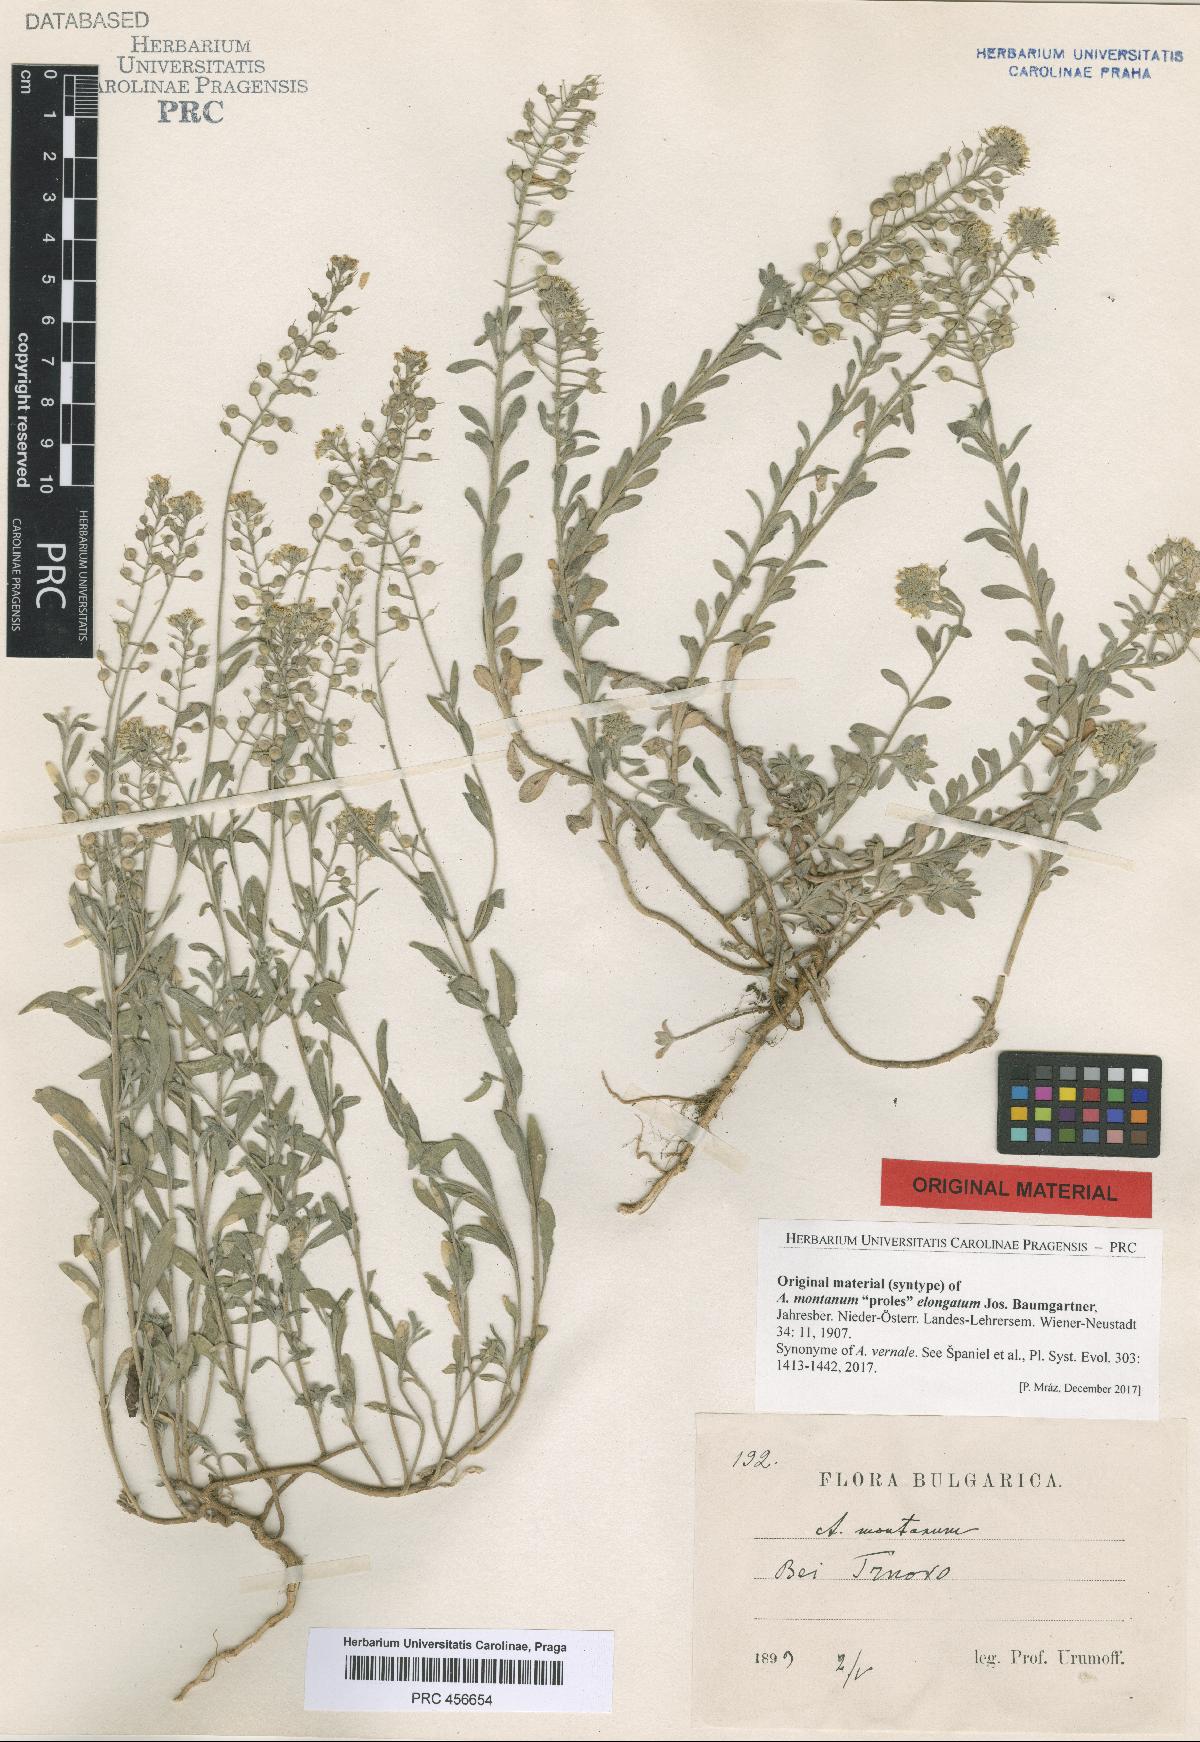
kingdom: Plantae
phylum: Tracheophyta
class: Magnoliopsida
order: Brassicales
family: Brassicaceae
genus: Alyssum
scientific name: Alyssum montanum
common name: Mountain alison
